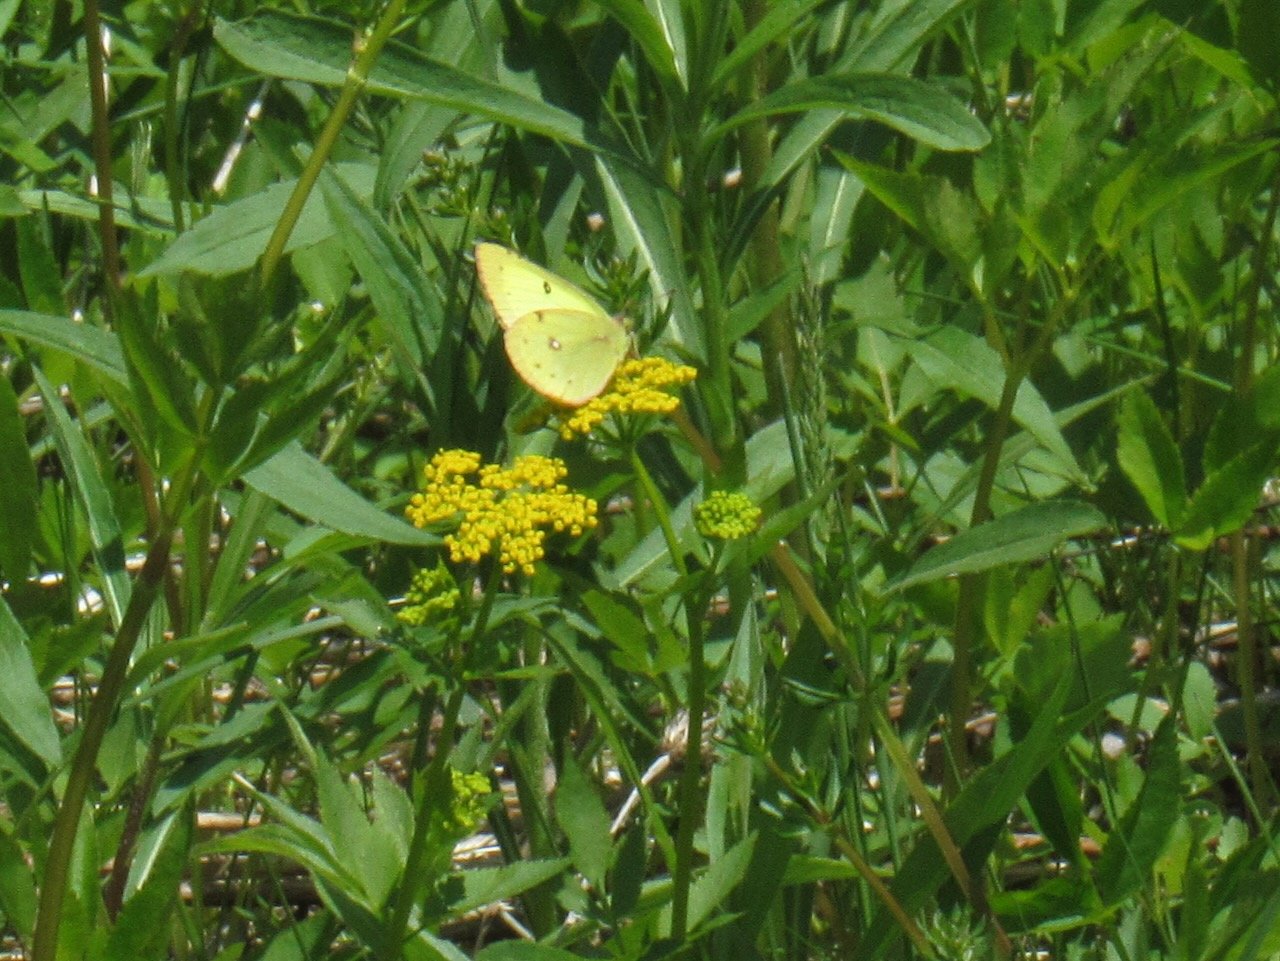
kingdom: Animalia
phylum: Arthropoda
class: Insecta
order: Lepidoptera
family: Pieridae
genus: Colias
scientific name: Colias philodice
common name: Clouded Sulphur
